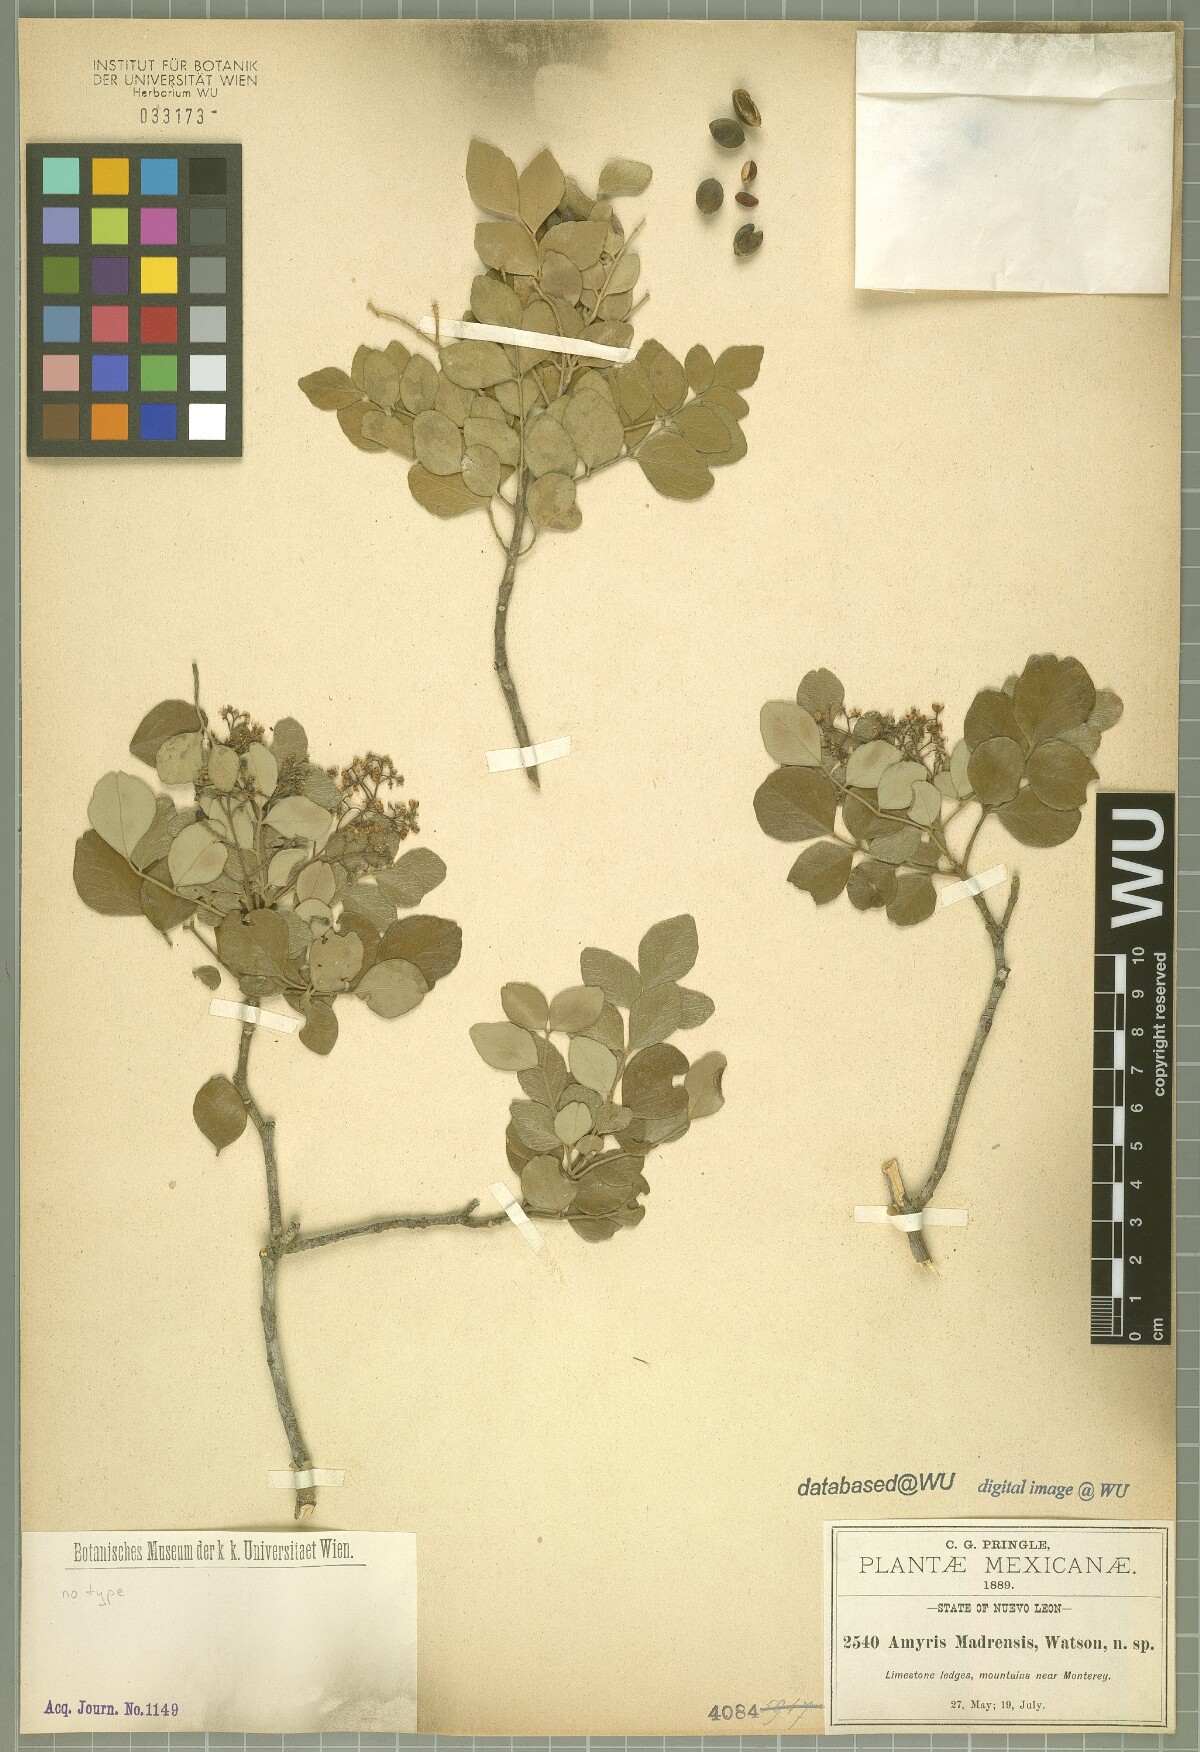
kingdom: Plantae
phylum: Tracheophyta
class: Magnoliopsida
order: Sapindales
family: Rutaceae
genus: Amyris
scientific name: Amyris madrensis
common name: Mountain torchwood
